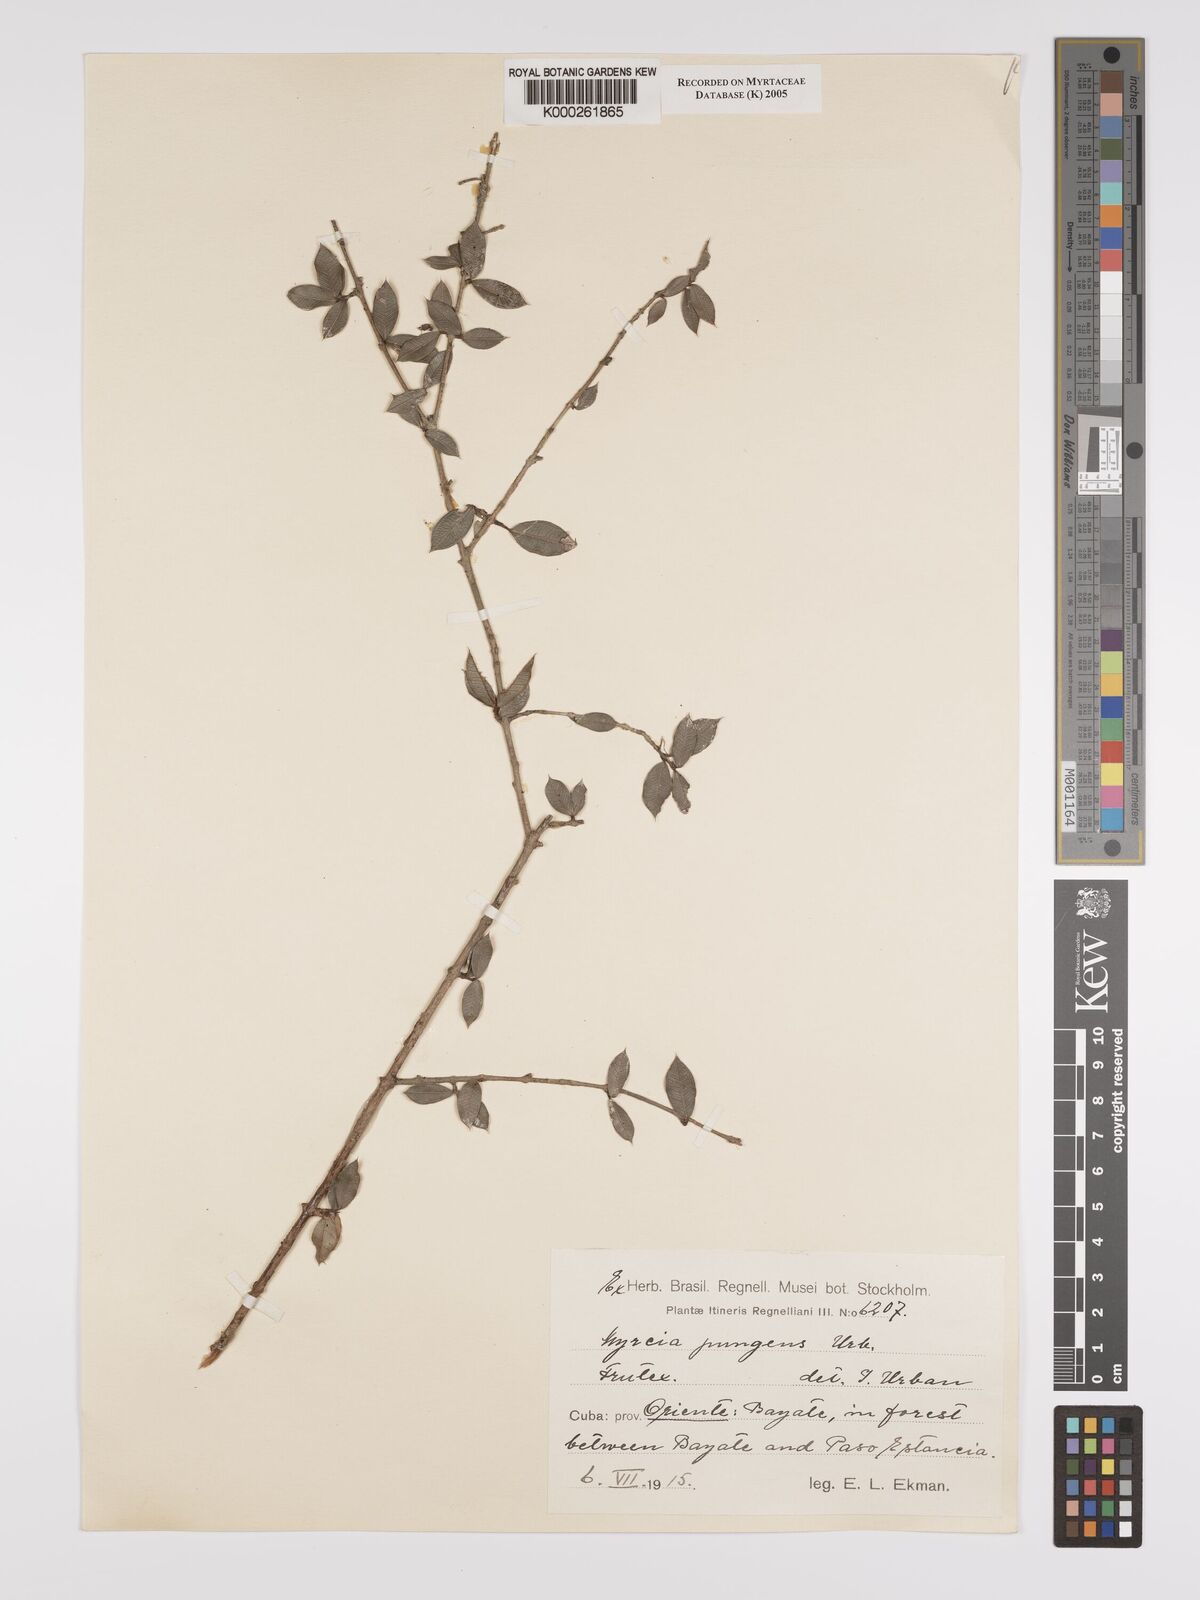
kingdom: Plantae
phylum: Tracheophyta
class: Magnoliopsida
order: Myrtales
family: Myrtaceae
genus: Myrcia
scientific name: Myrcia retivenia
